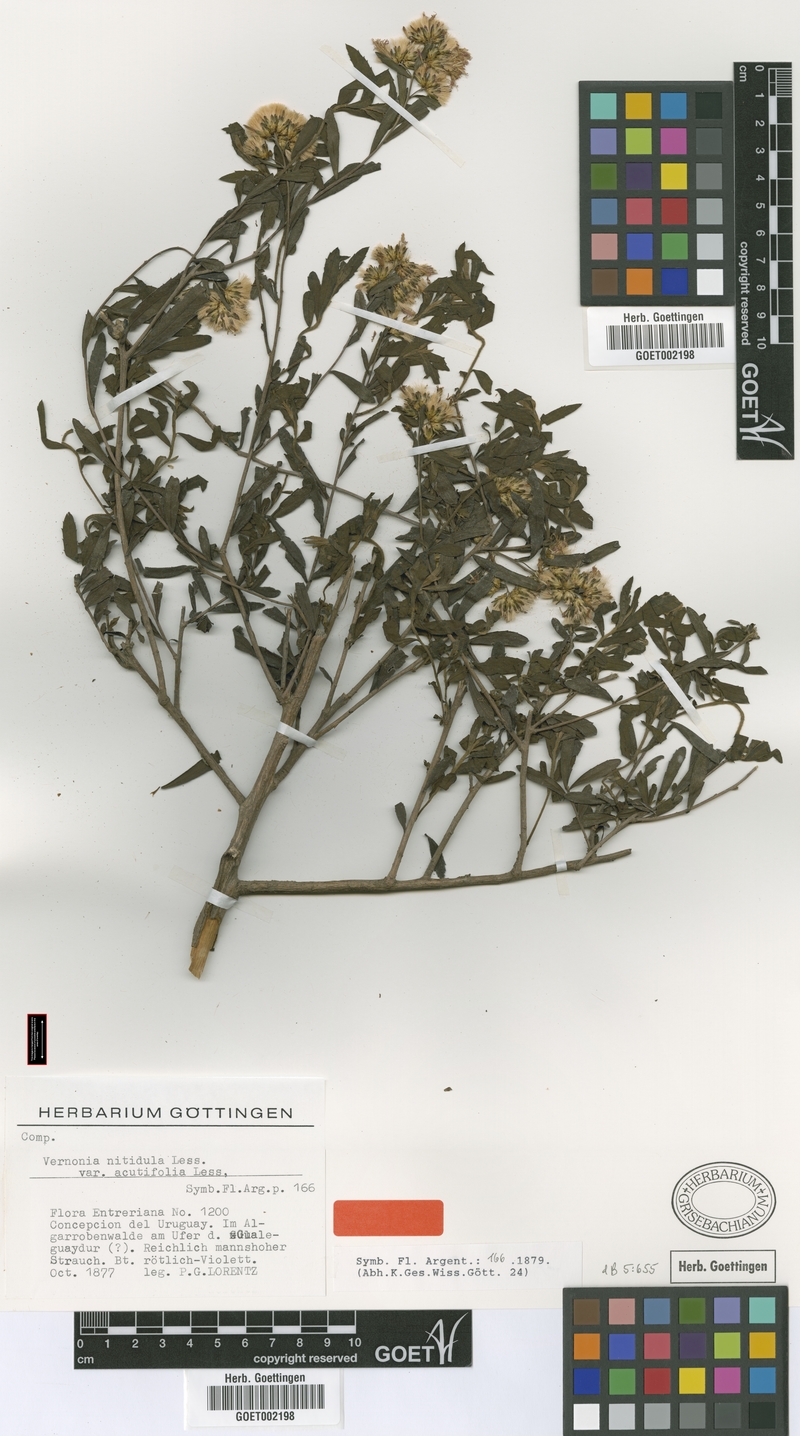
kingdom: Plantae
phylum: Tracheophyta
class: Magnoliopsida
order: Asterales
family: Asteraceae
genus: Vernonanthura
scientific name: Vernonanthura montevidensis
